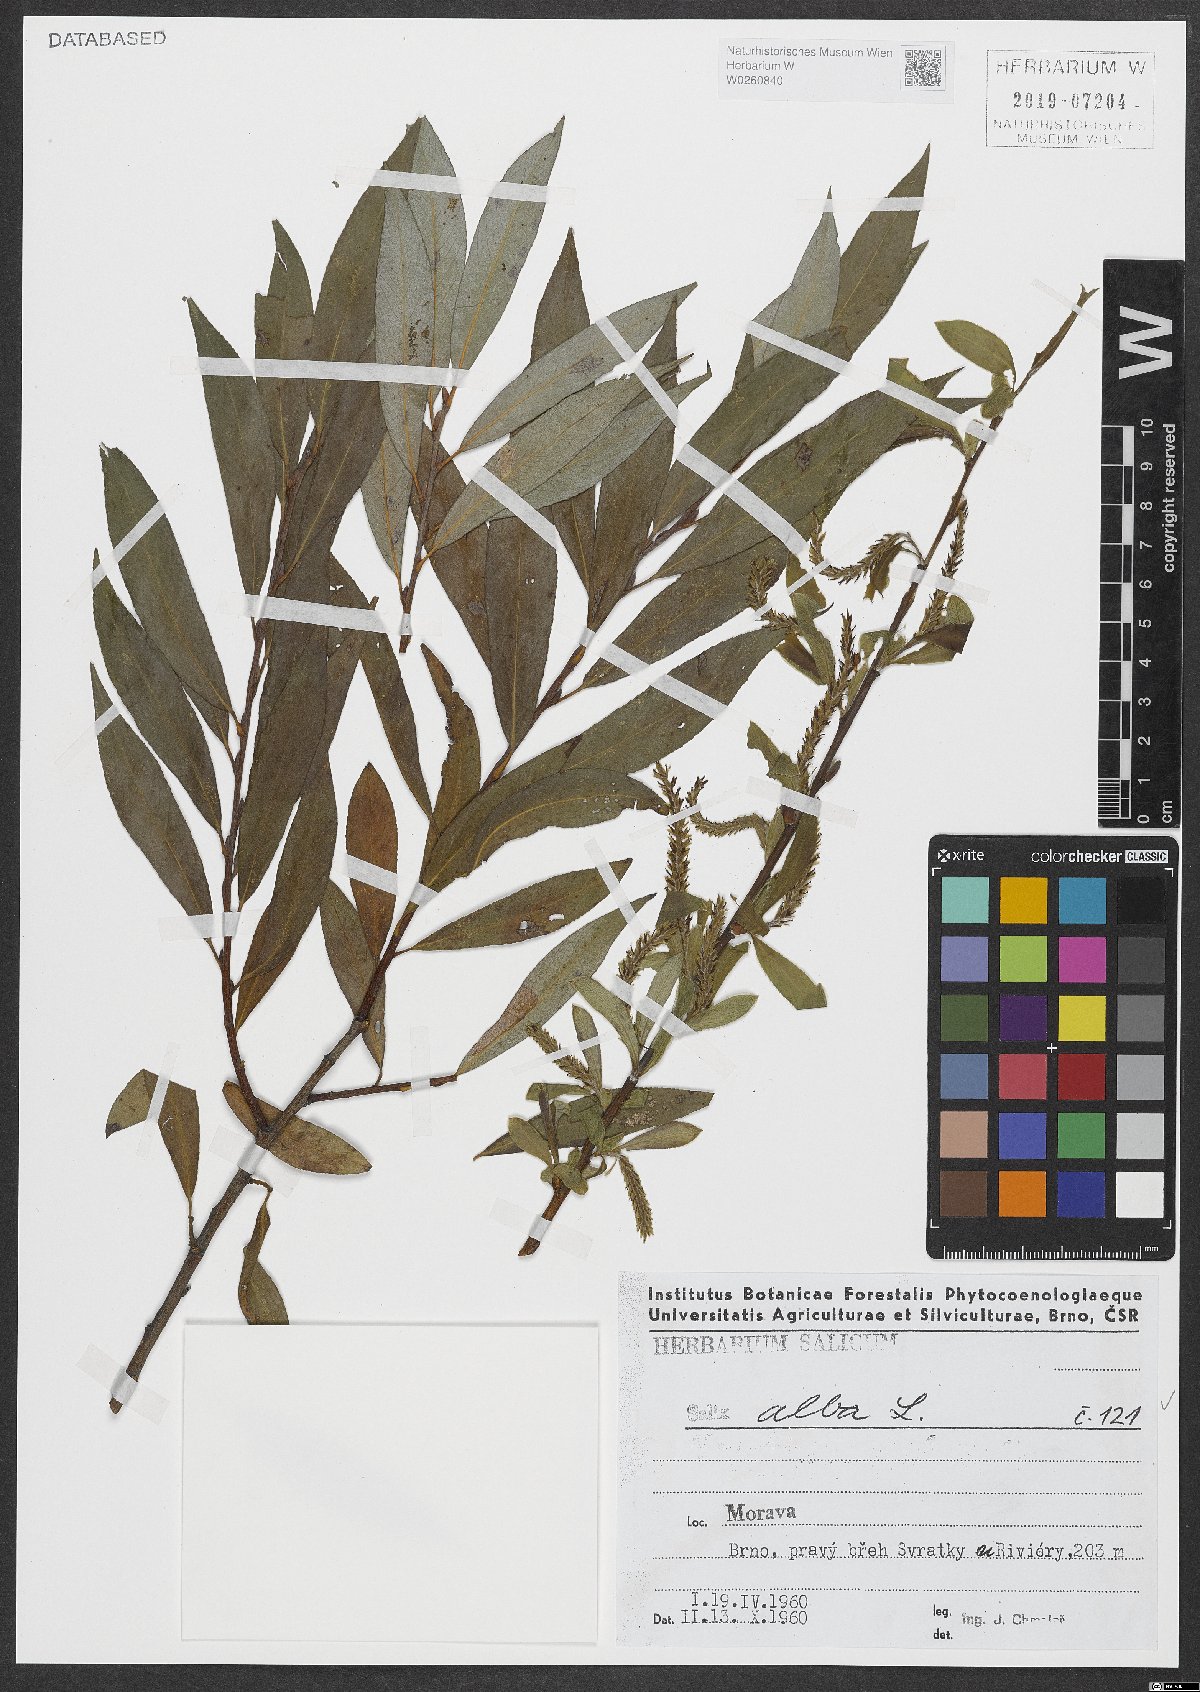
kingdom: Plantae
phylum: Tracheophyta
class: Magnoliopsida
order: Malpighiales
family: Salicaceae
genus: Salix
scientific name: Salix alba
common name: White willow
